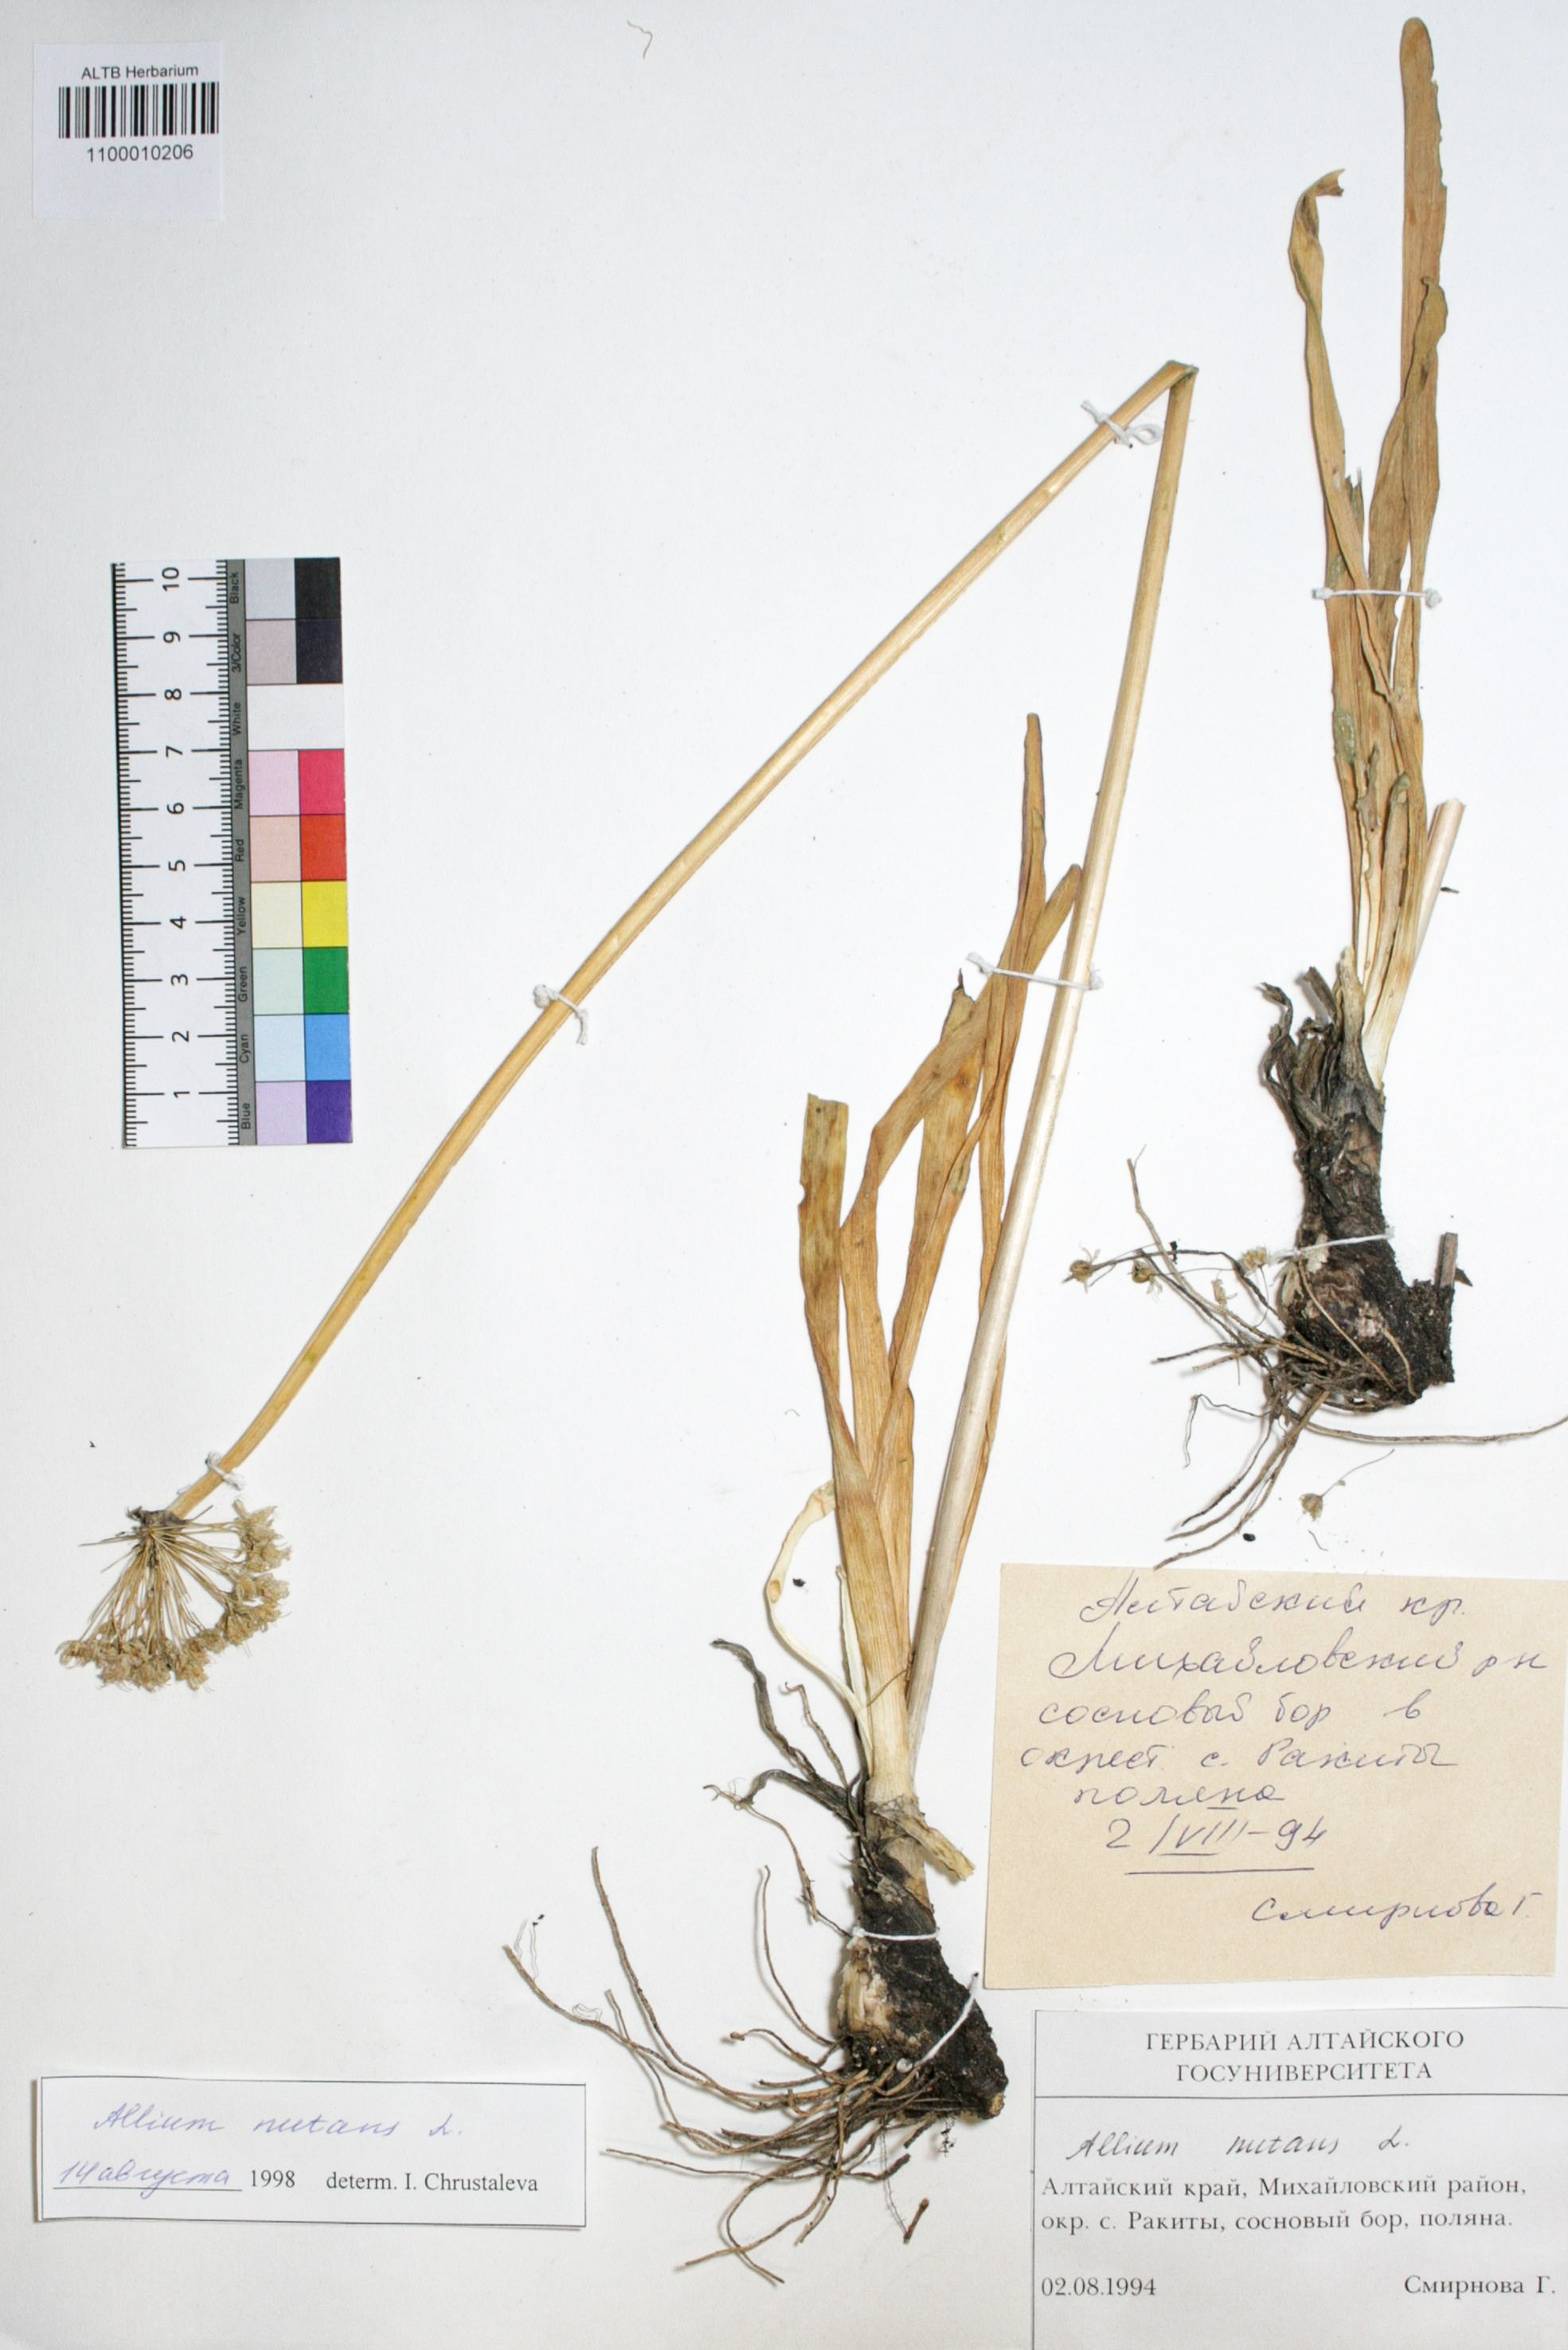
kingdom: Plantae
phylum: Tracheophyta
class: Liliopsida
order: Asparagales
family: Amaryllidaceae
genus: Allium
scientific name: Allium nutans
